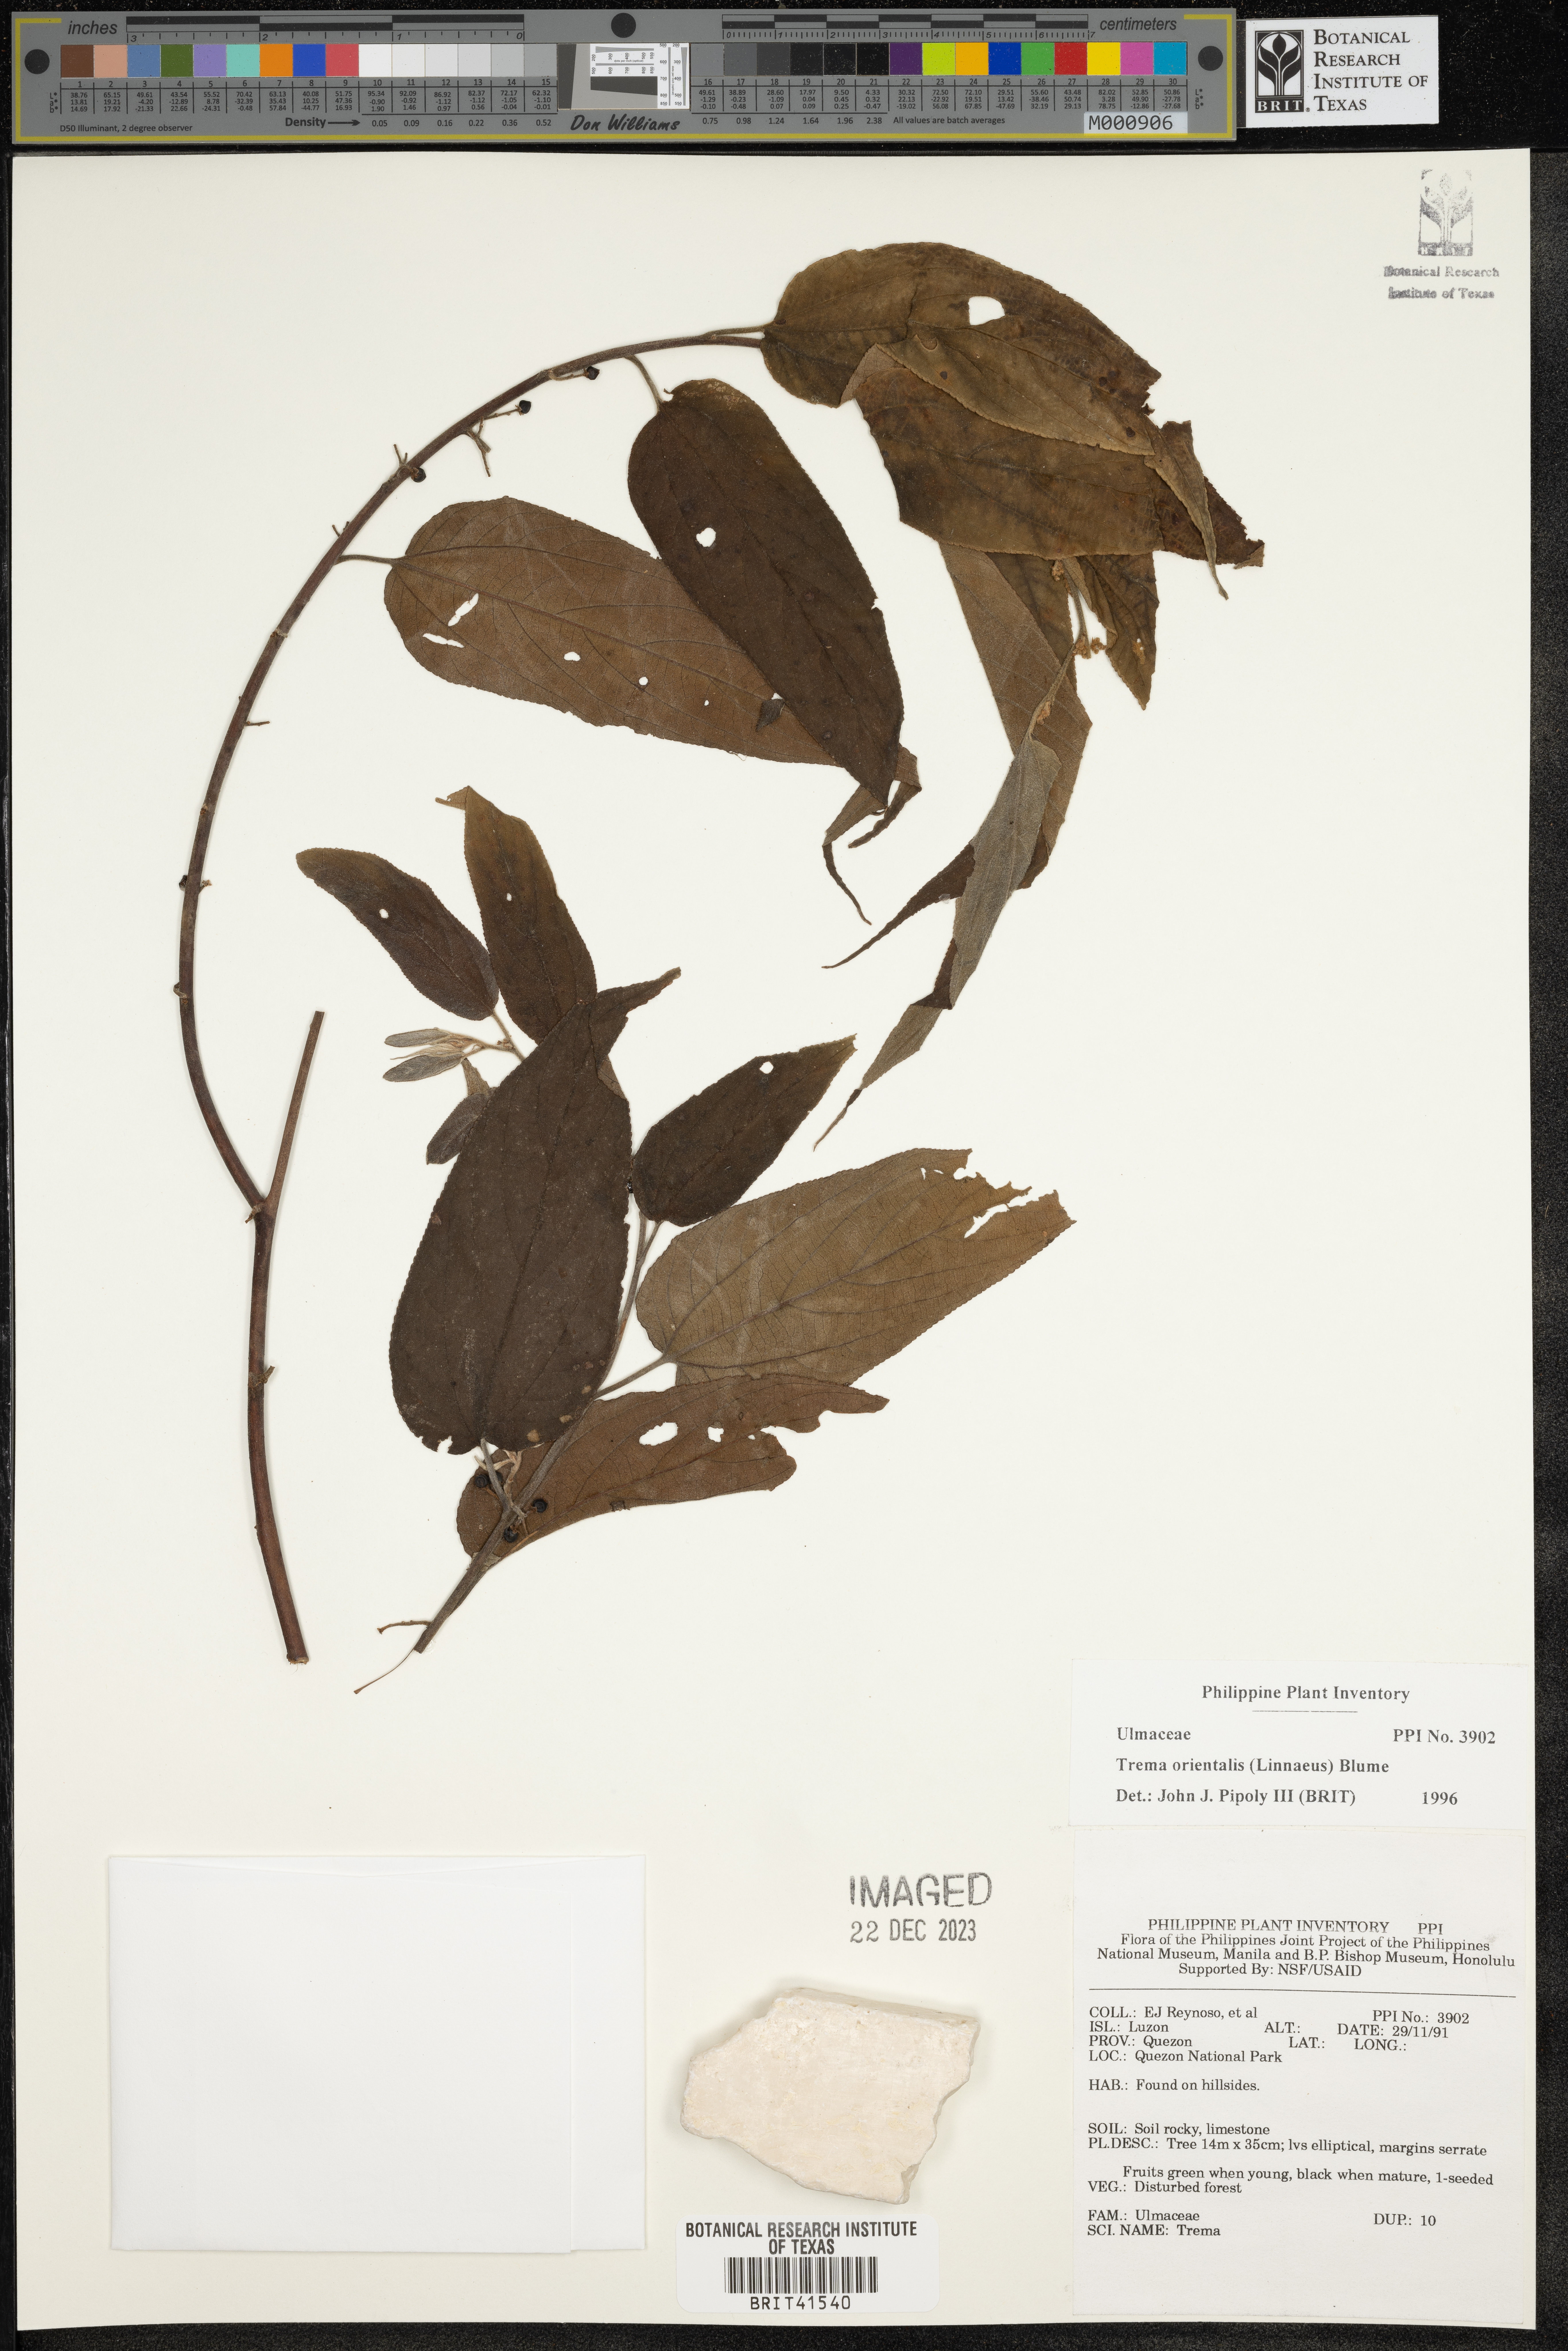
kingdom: Plantae
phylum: Tracheophyta
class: Magnoliopsida
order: Rosales
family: Cannabaceae
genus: Trema
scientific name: Trema orientale
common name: Indian charcoal tree
